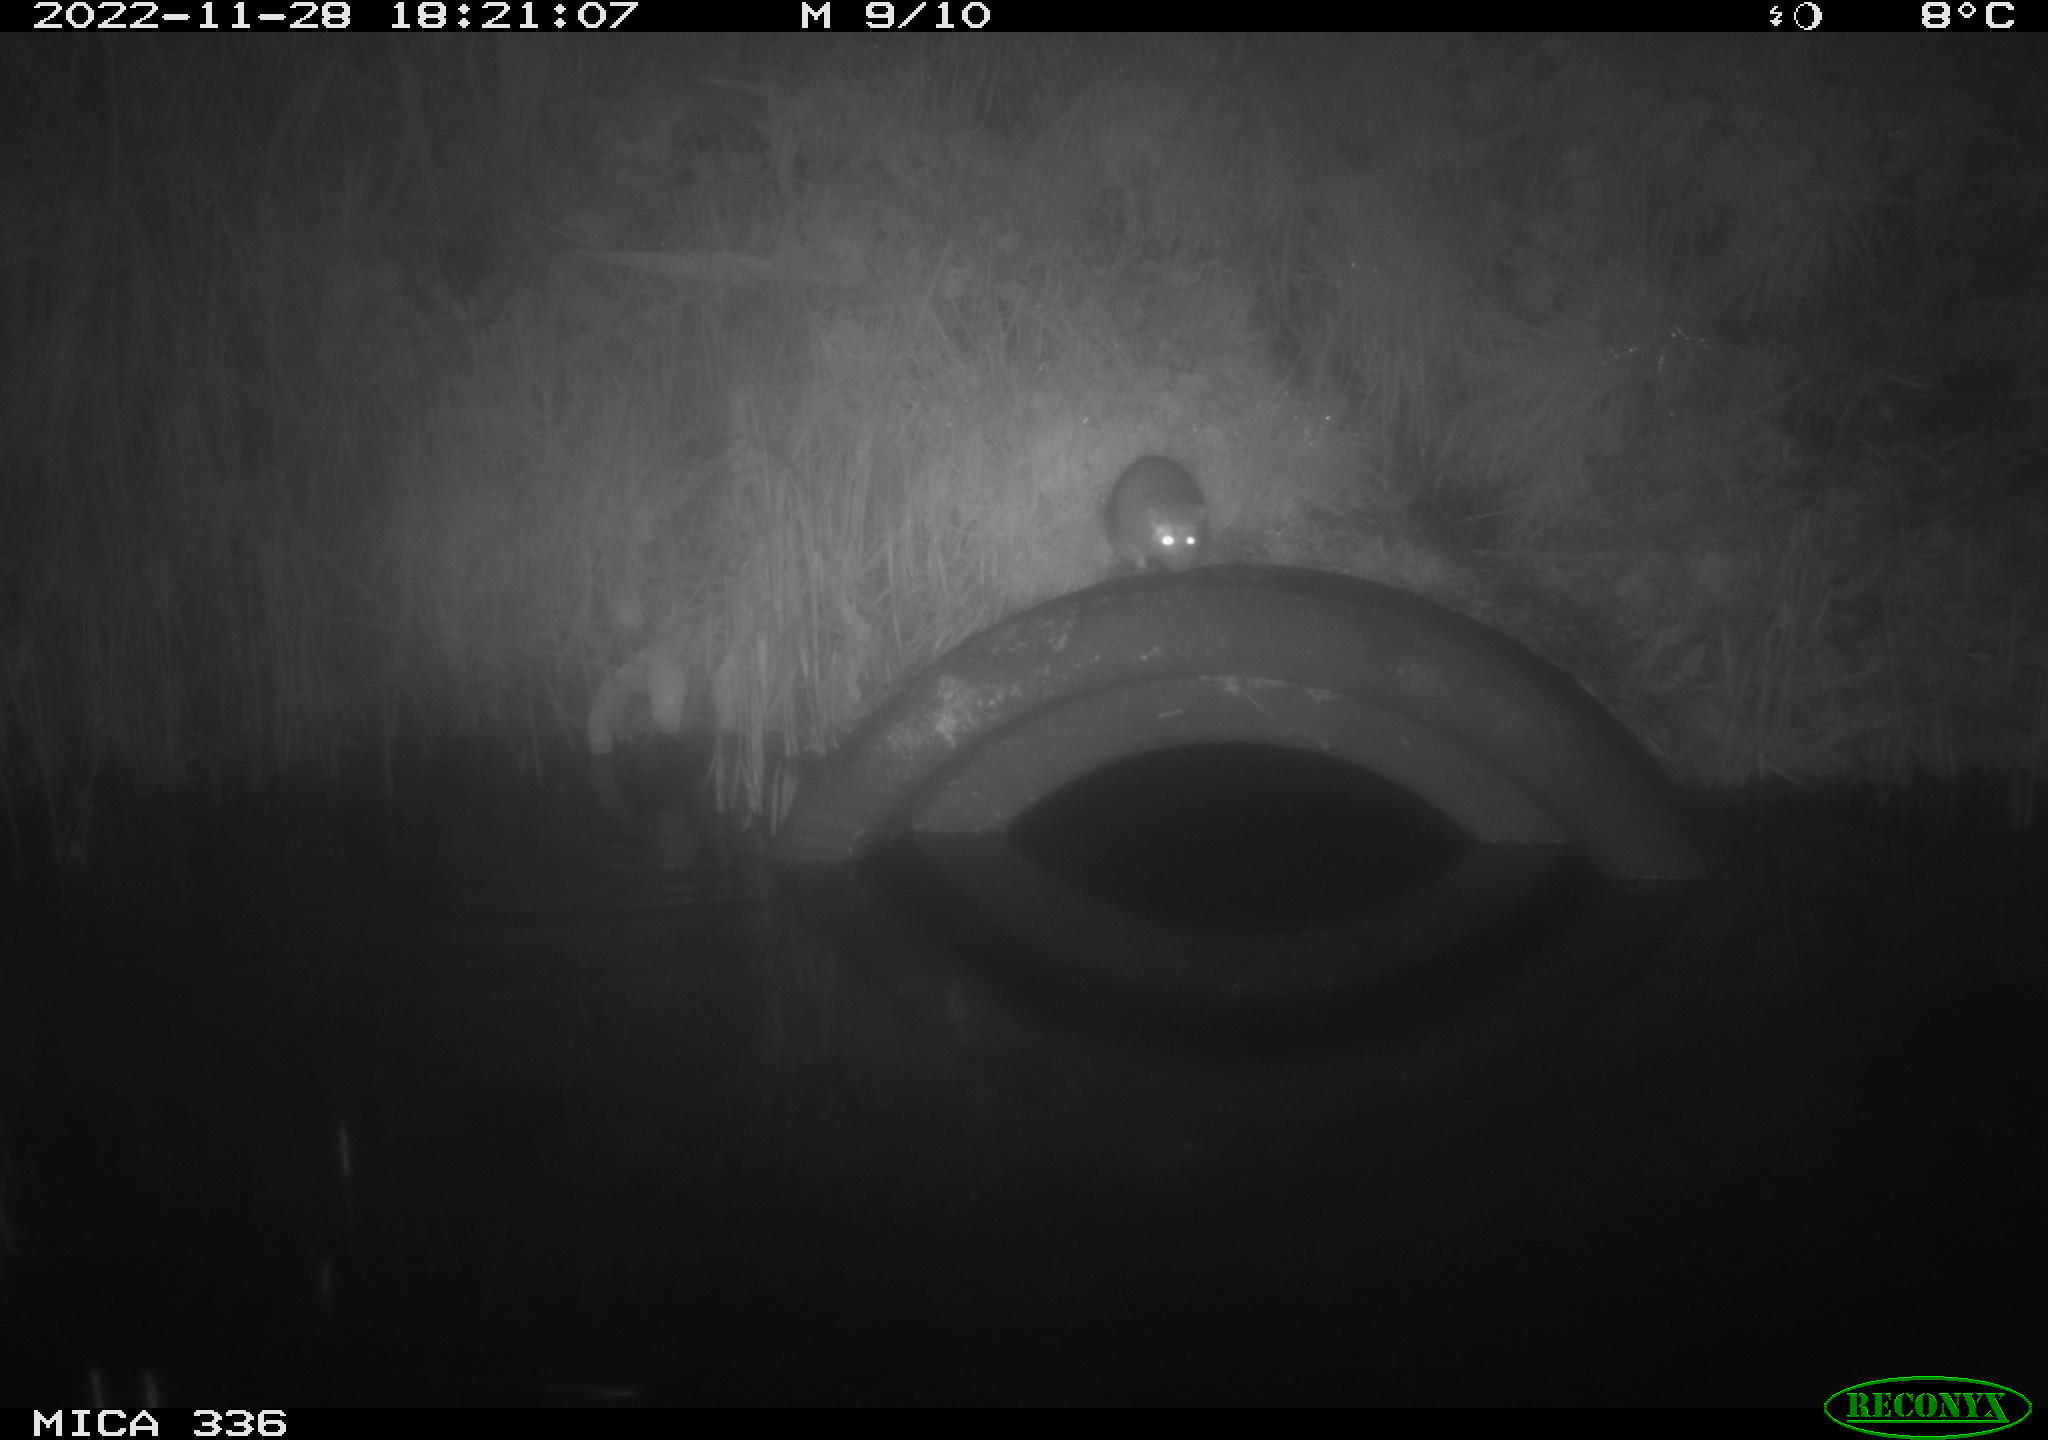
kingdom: Animalia
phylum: Chordata
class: Mammalia
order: Rodentia
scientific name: Rodentia
